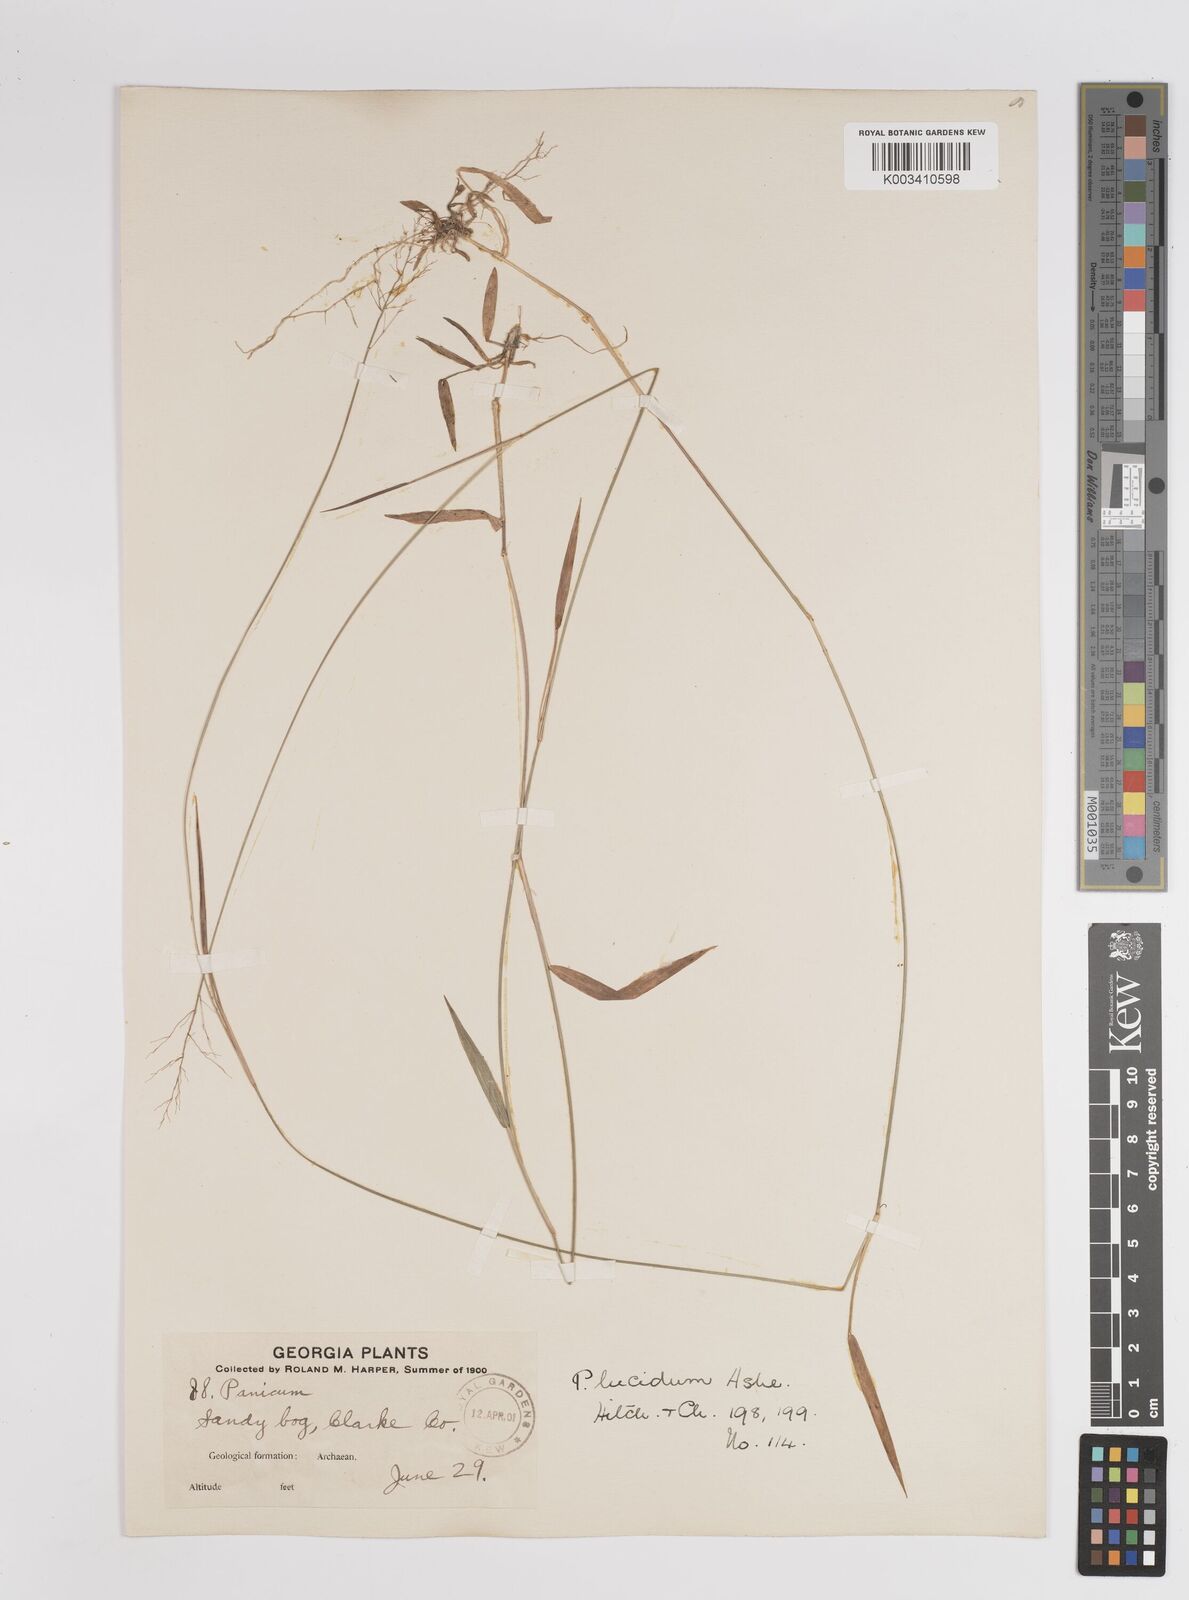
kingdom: Plantae
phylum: Tracheophyta
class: Liliopsida
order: Poales
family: Poaceae
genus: Dichanthelium
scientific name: Dichanthelium lucidum
